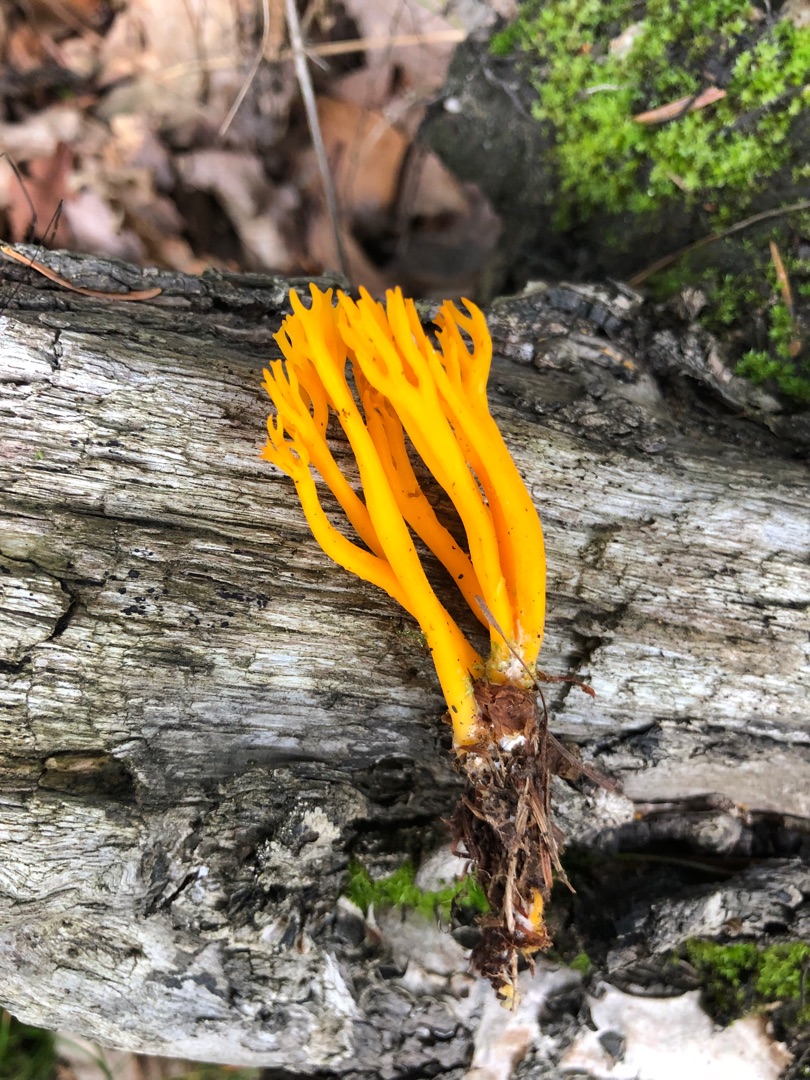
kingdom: Fungi
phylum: Basidiomycota
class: Dacrymycetes
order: Dacrymycetales
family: Dacrymycetaceae
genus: Calocera
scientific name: Calocera viscosa
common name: Almindelig guldgaffel
